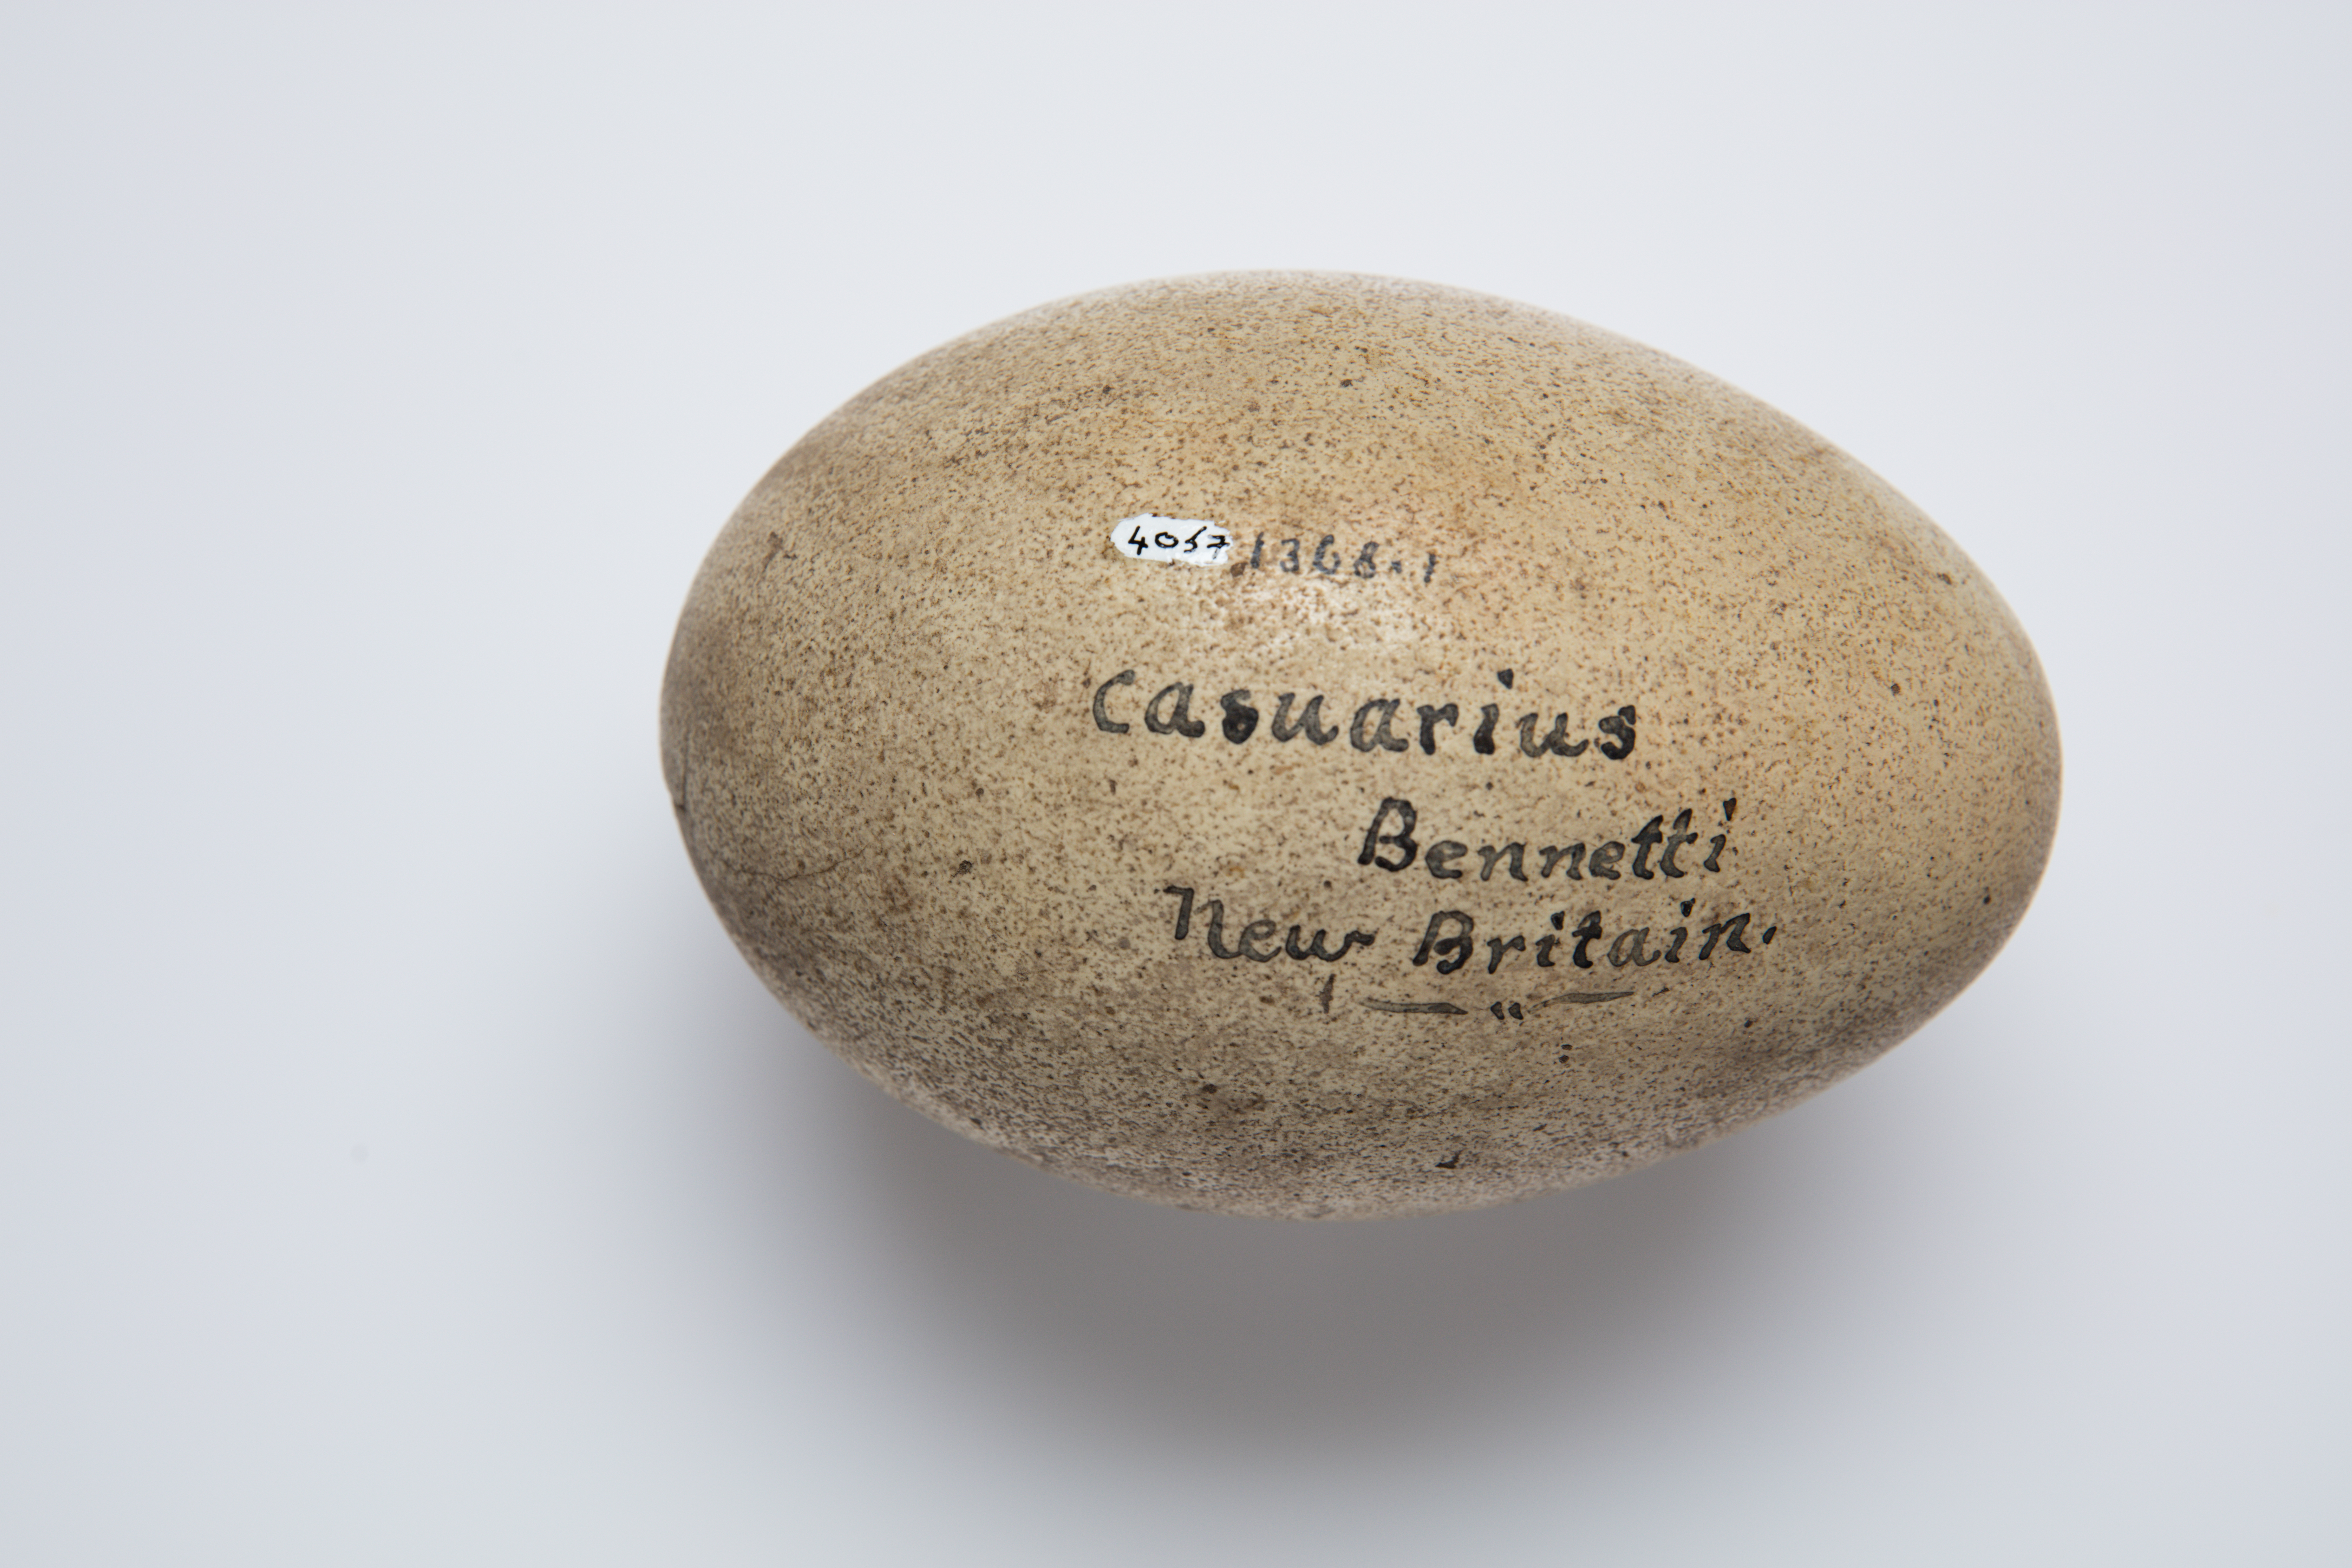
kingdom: Animalia
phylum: Chordata
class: Aves
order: Casuariiformes
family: Casuariidae
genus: Casuarius
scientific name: Casuarius bennetti
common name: Dwarf cassowary
